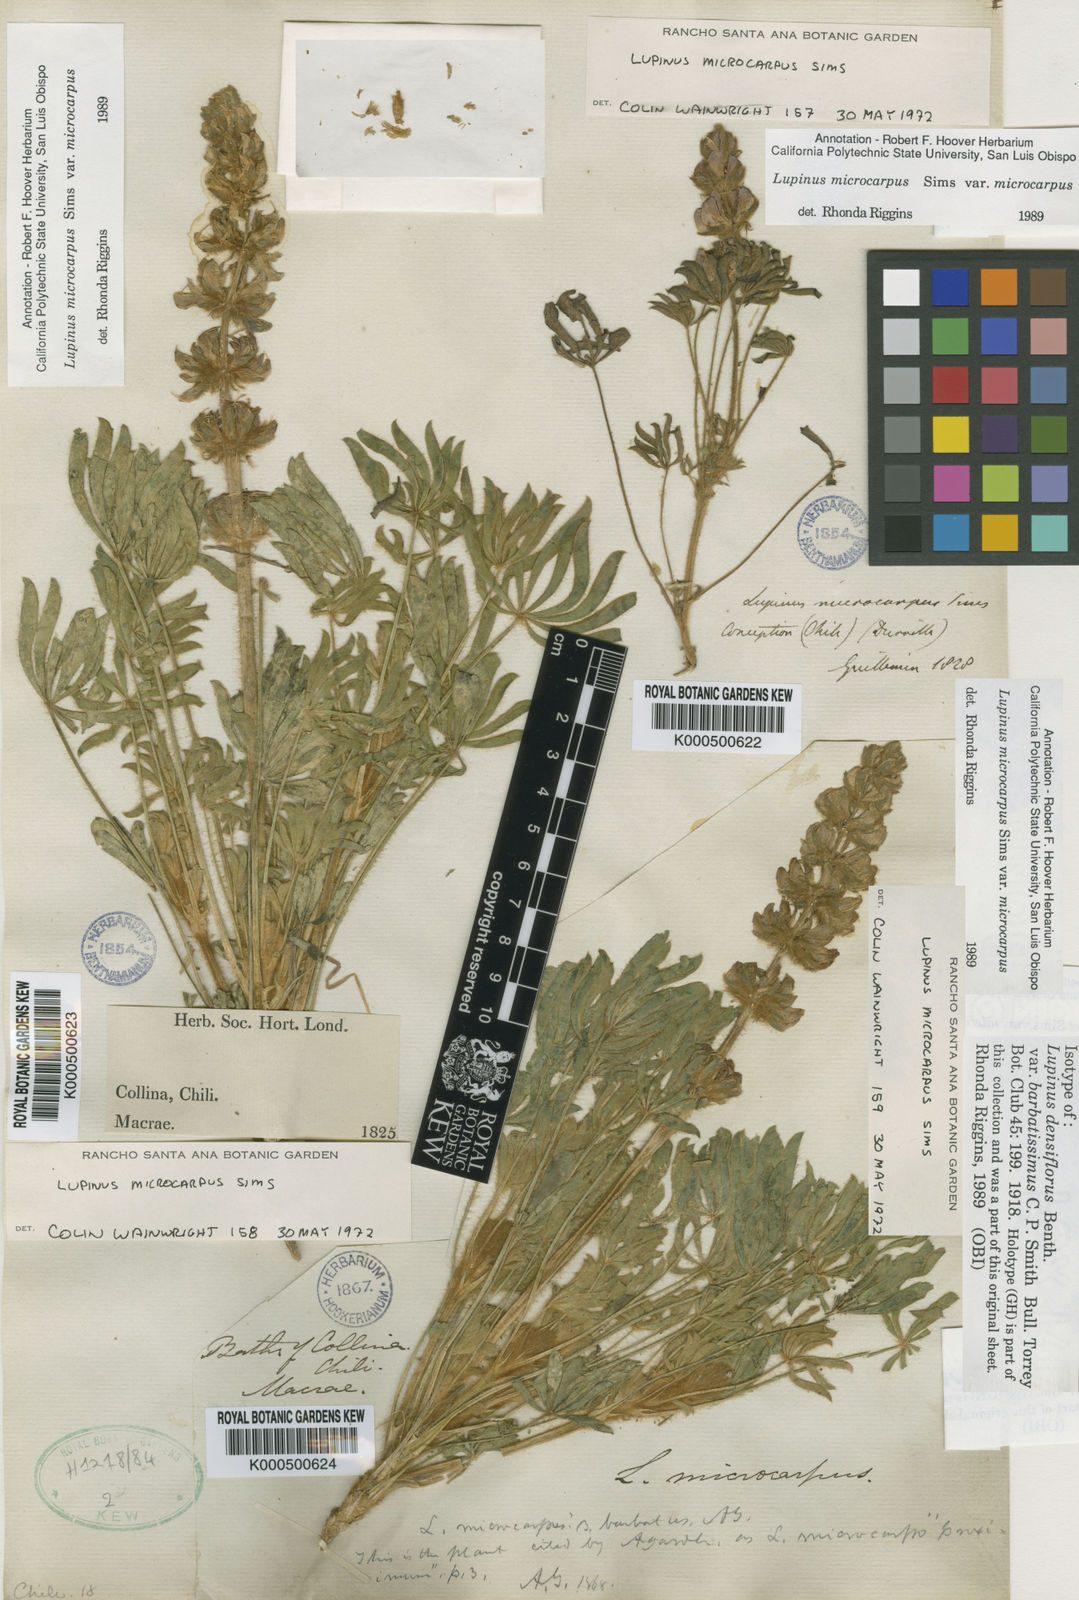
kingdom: Plantae
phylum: Tracheophyta
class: Magnoliopsida
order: Fabales
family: Fabaceae
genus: Lupinus
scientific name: Lupinus microcarpus
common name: Chick lupine
